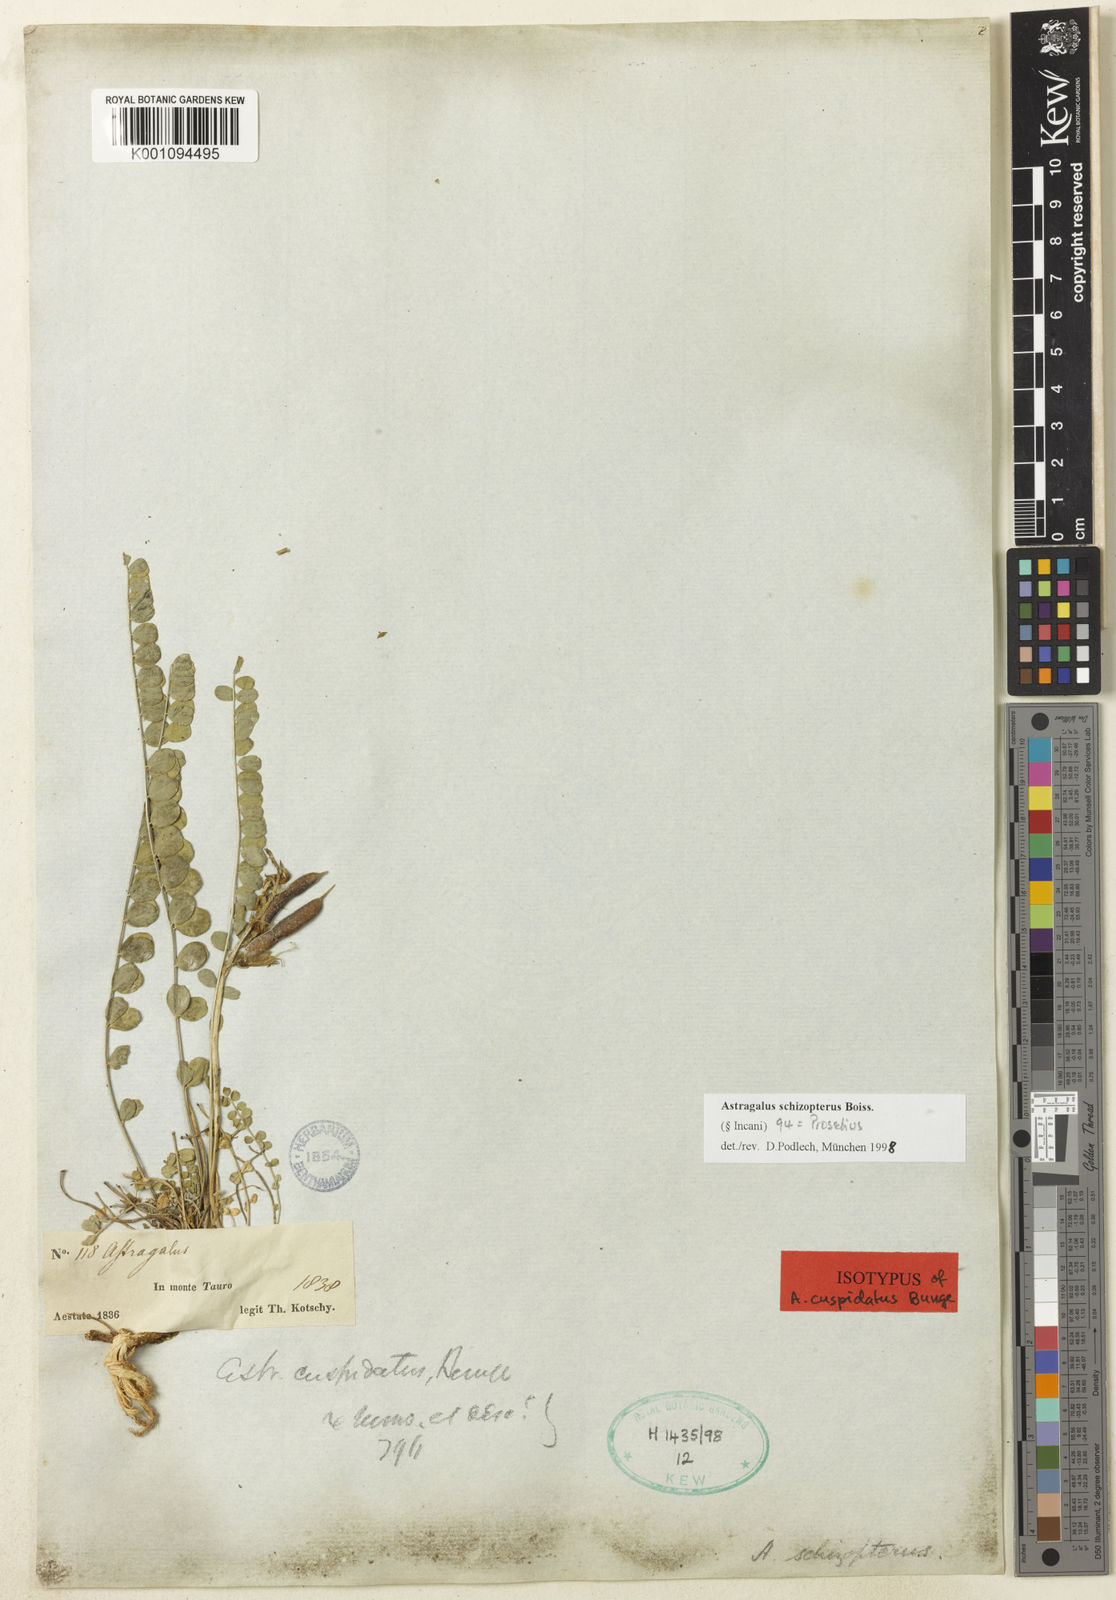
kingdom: Plantae
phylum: Tracheophyta
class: Magnoliopsida
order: Fabales
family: Fabaceae
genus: Astragalus
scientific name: Astragalus
